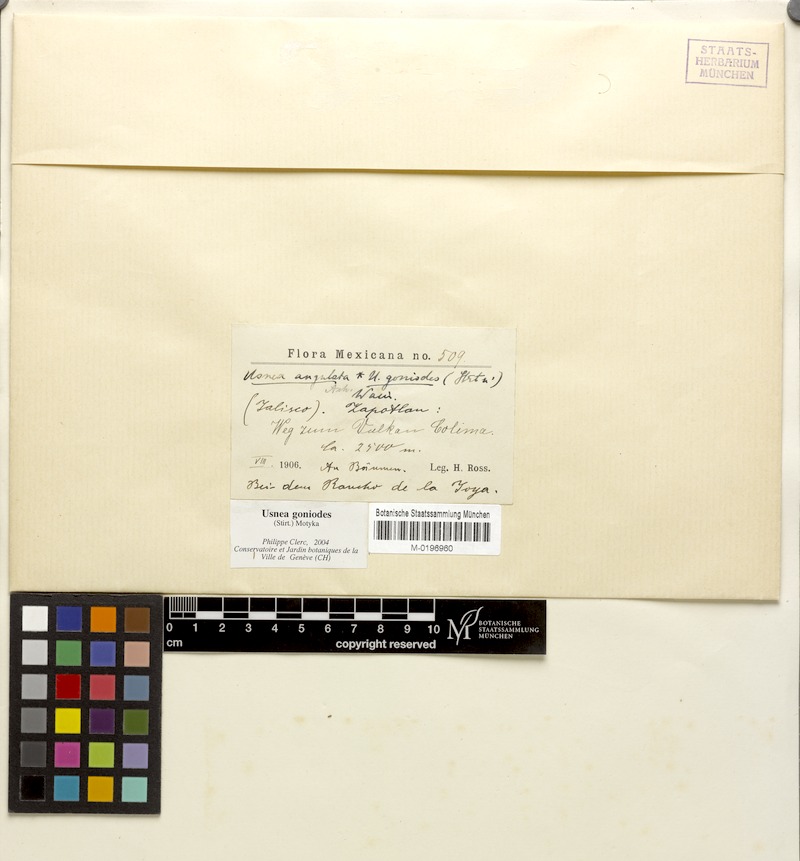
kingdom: Fungi
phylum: Ascomycota
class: Lecanoromycetes
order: Lecanorales
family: Parmeliaceae
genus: Usnea
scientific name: Usnea goniodes
